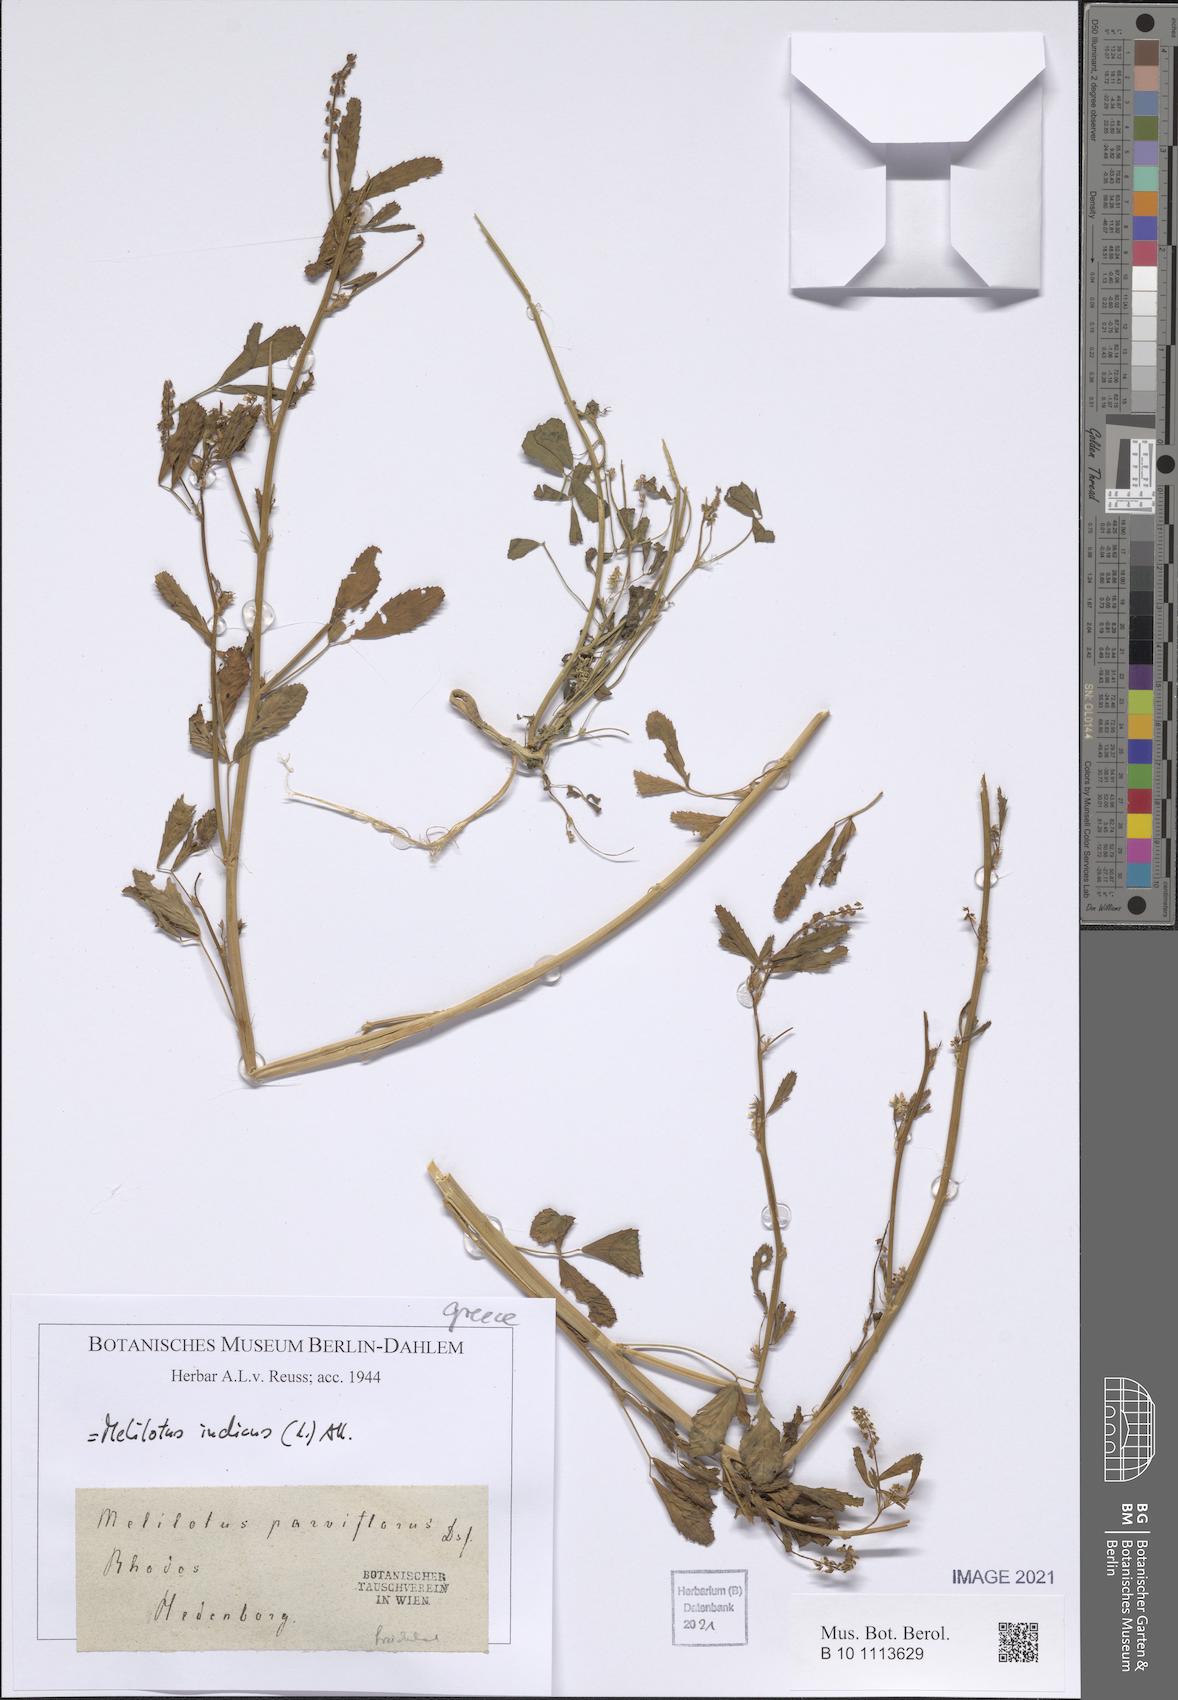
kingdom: Plantae
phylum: Tracheophyta
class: Magnoliopsida
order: Fabales
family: Fabaceae
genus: Melilotus
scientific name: Melilotus indicus
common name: Small melilot
